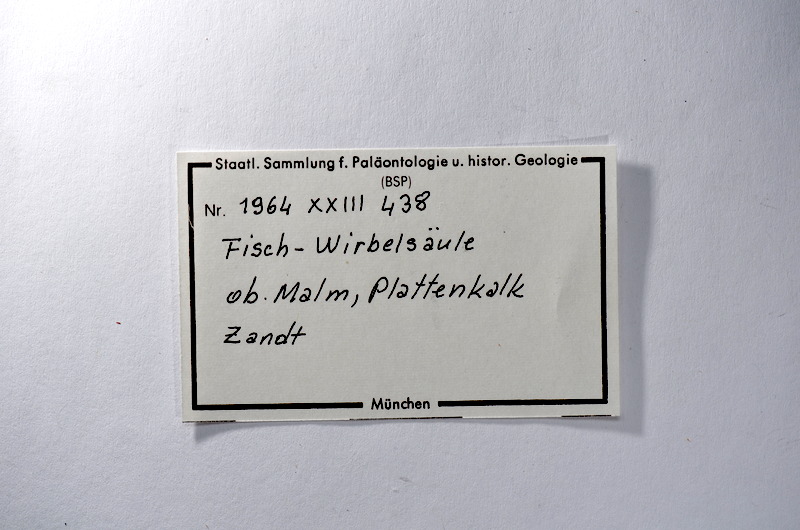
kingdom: Animalia
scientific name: Animalia
